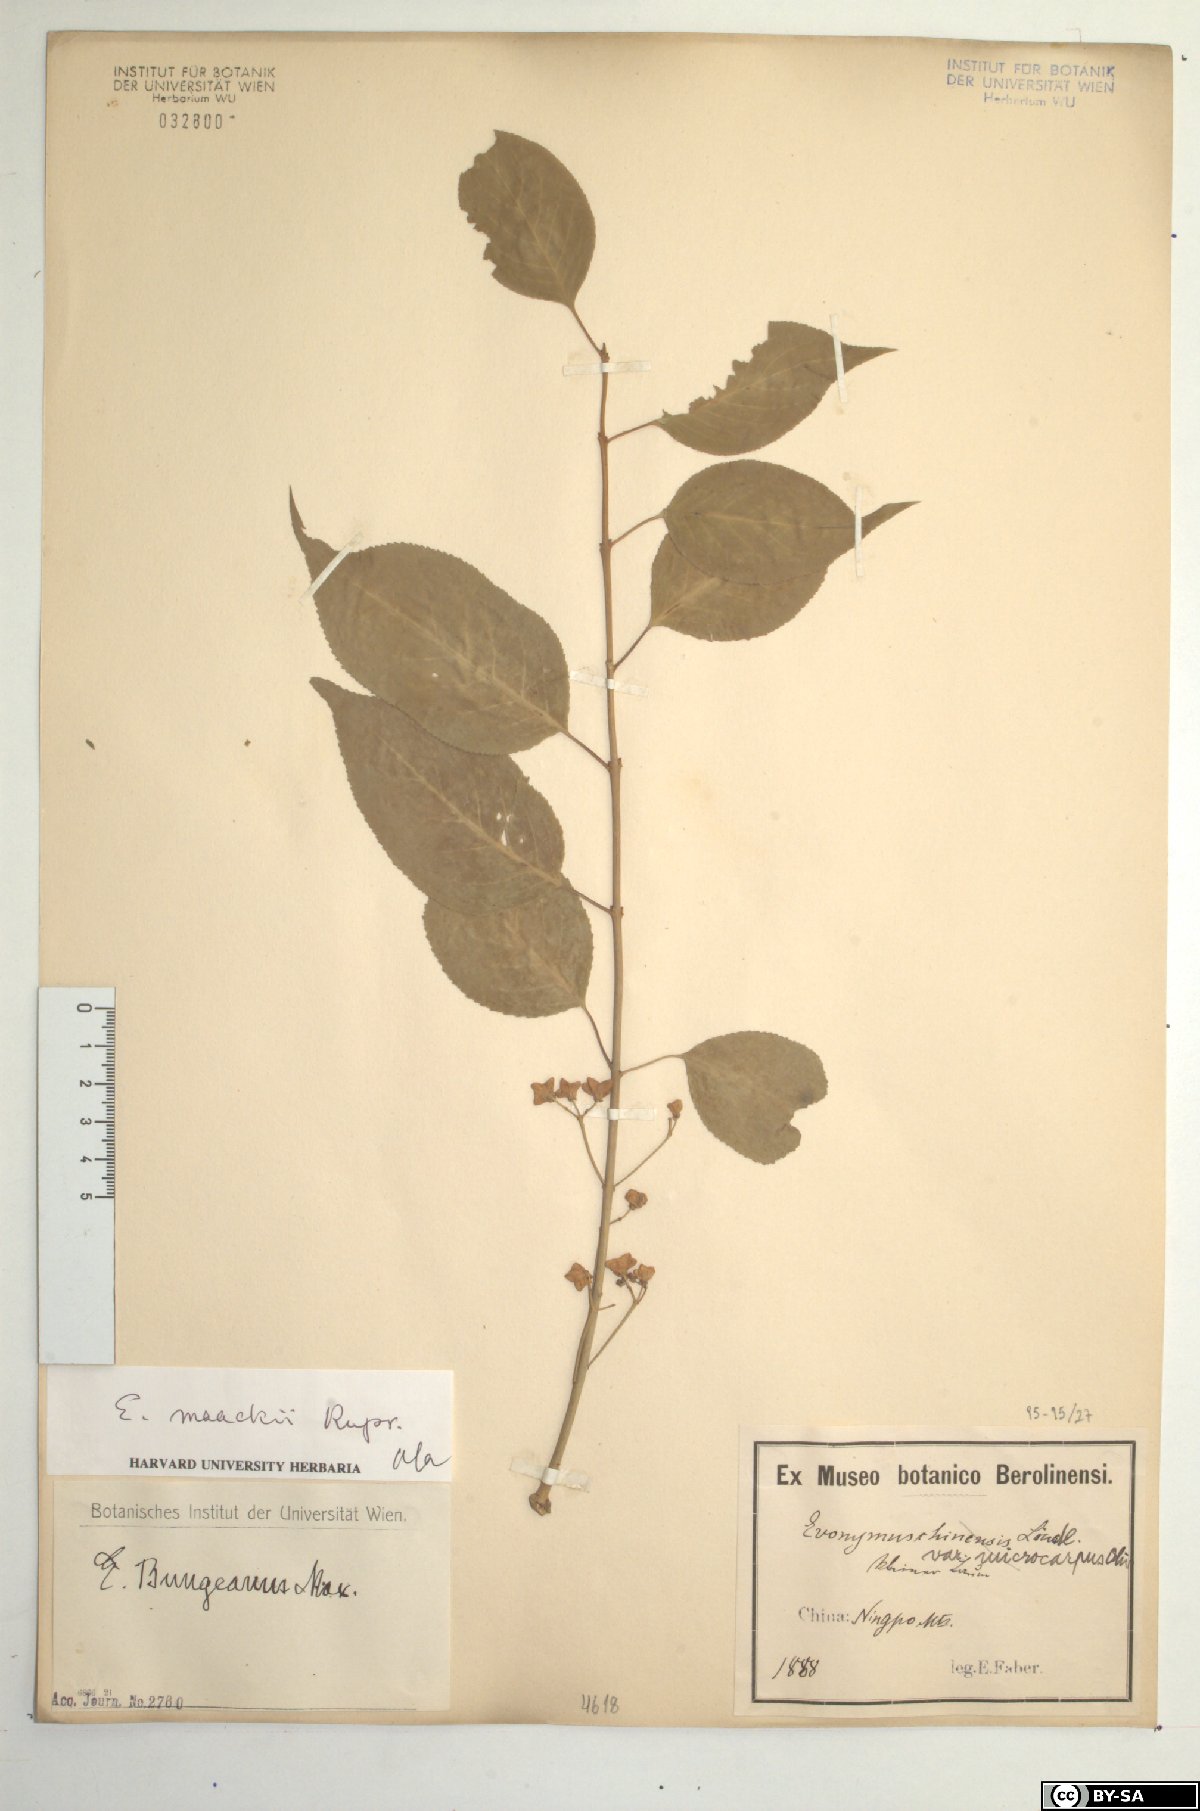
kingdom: Plantae
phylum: Tracheophyta
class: Magnoliopsida
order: Celastrales
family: Celastraceae
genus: Euonymus
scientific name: Euonymus maackii
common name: Hamilton's spindletree
